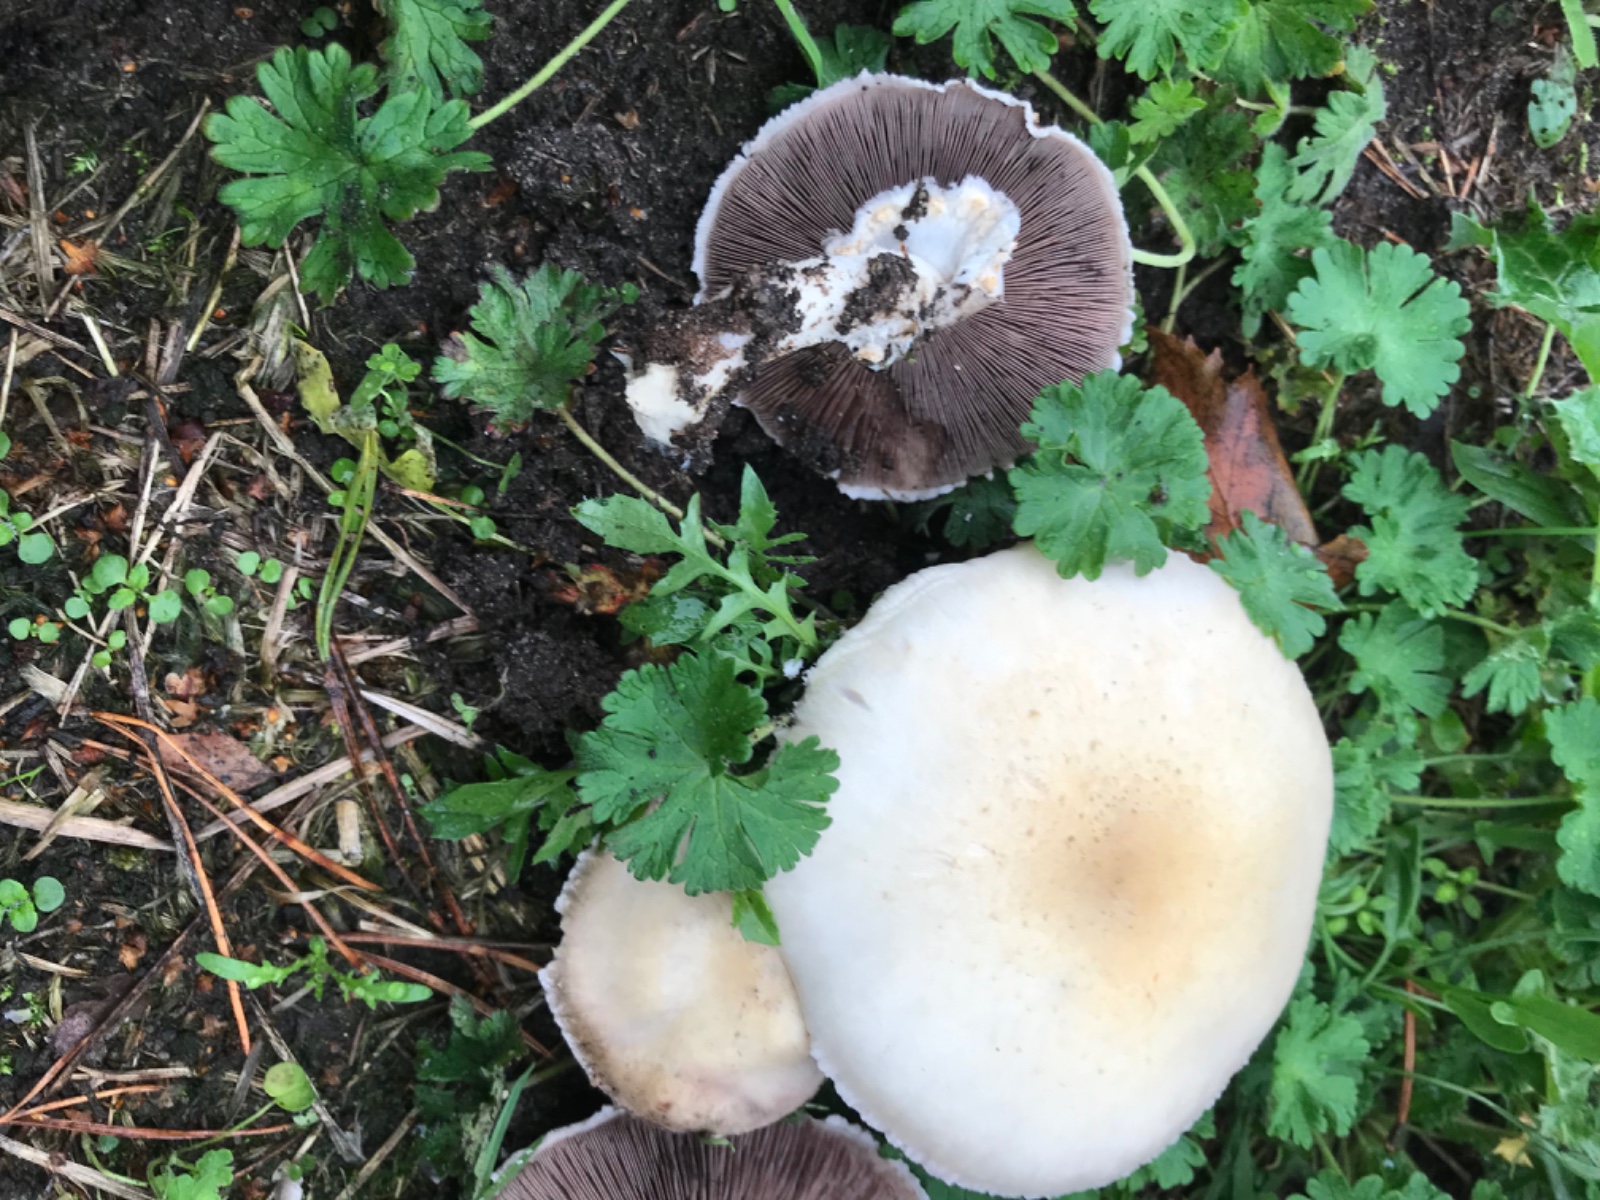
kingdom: Fungi
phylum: Basidiomycota
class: Agaricomycetes
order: Agaricales
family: Agaricaceae
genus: Agaricus
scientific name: Agaricus arvensis
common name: ager-champignon
